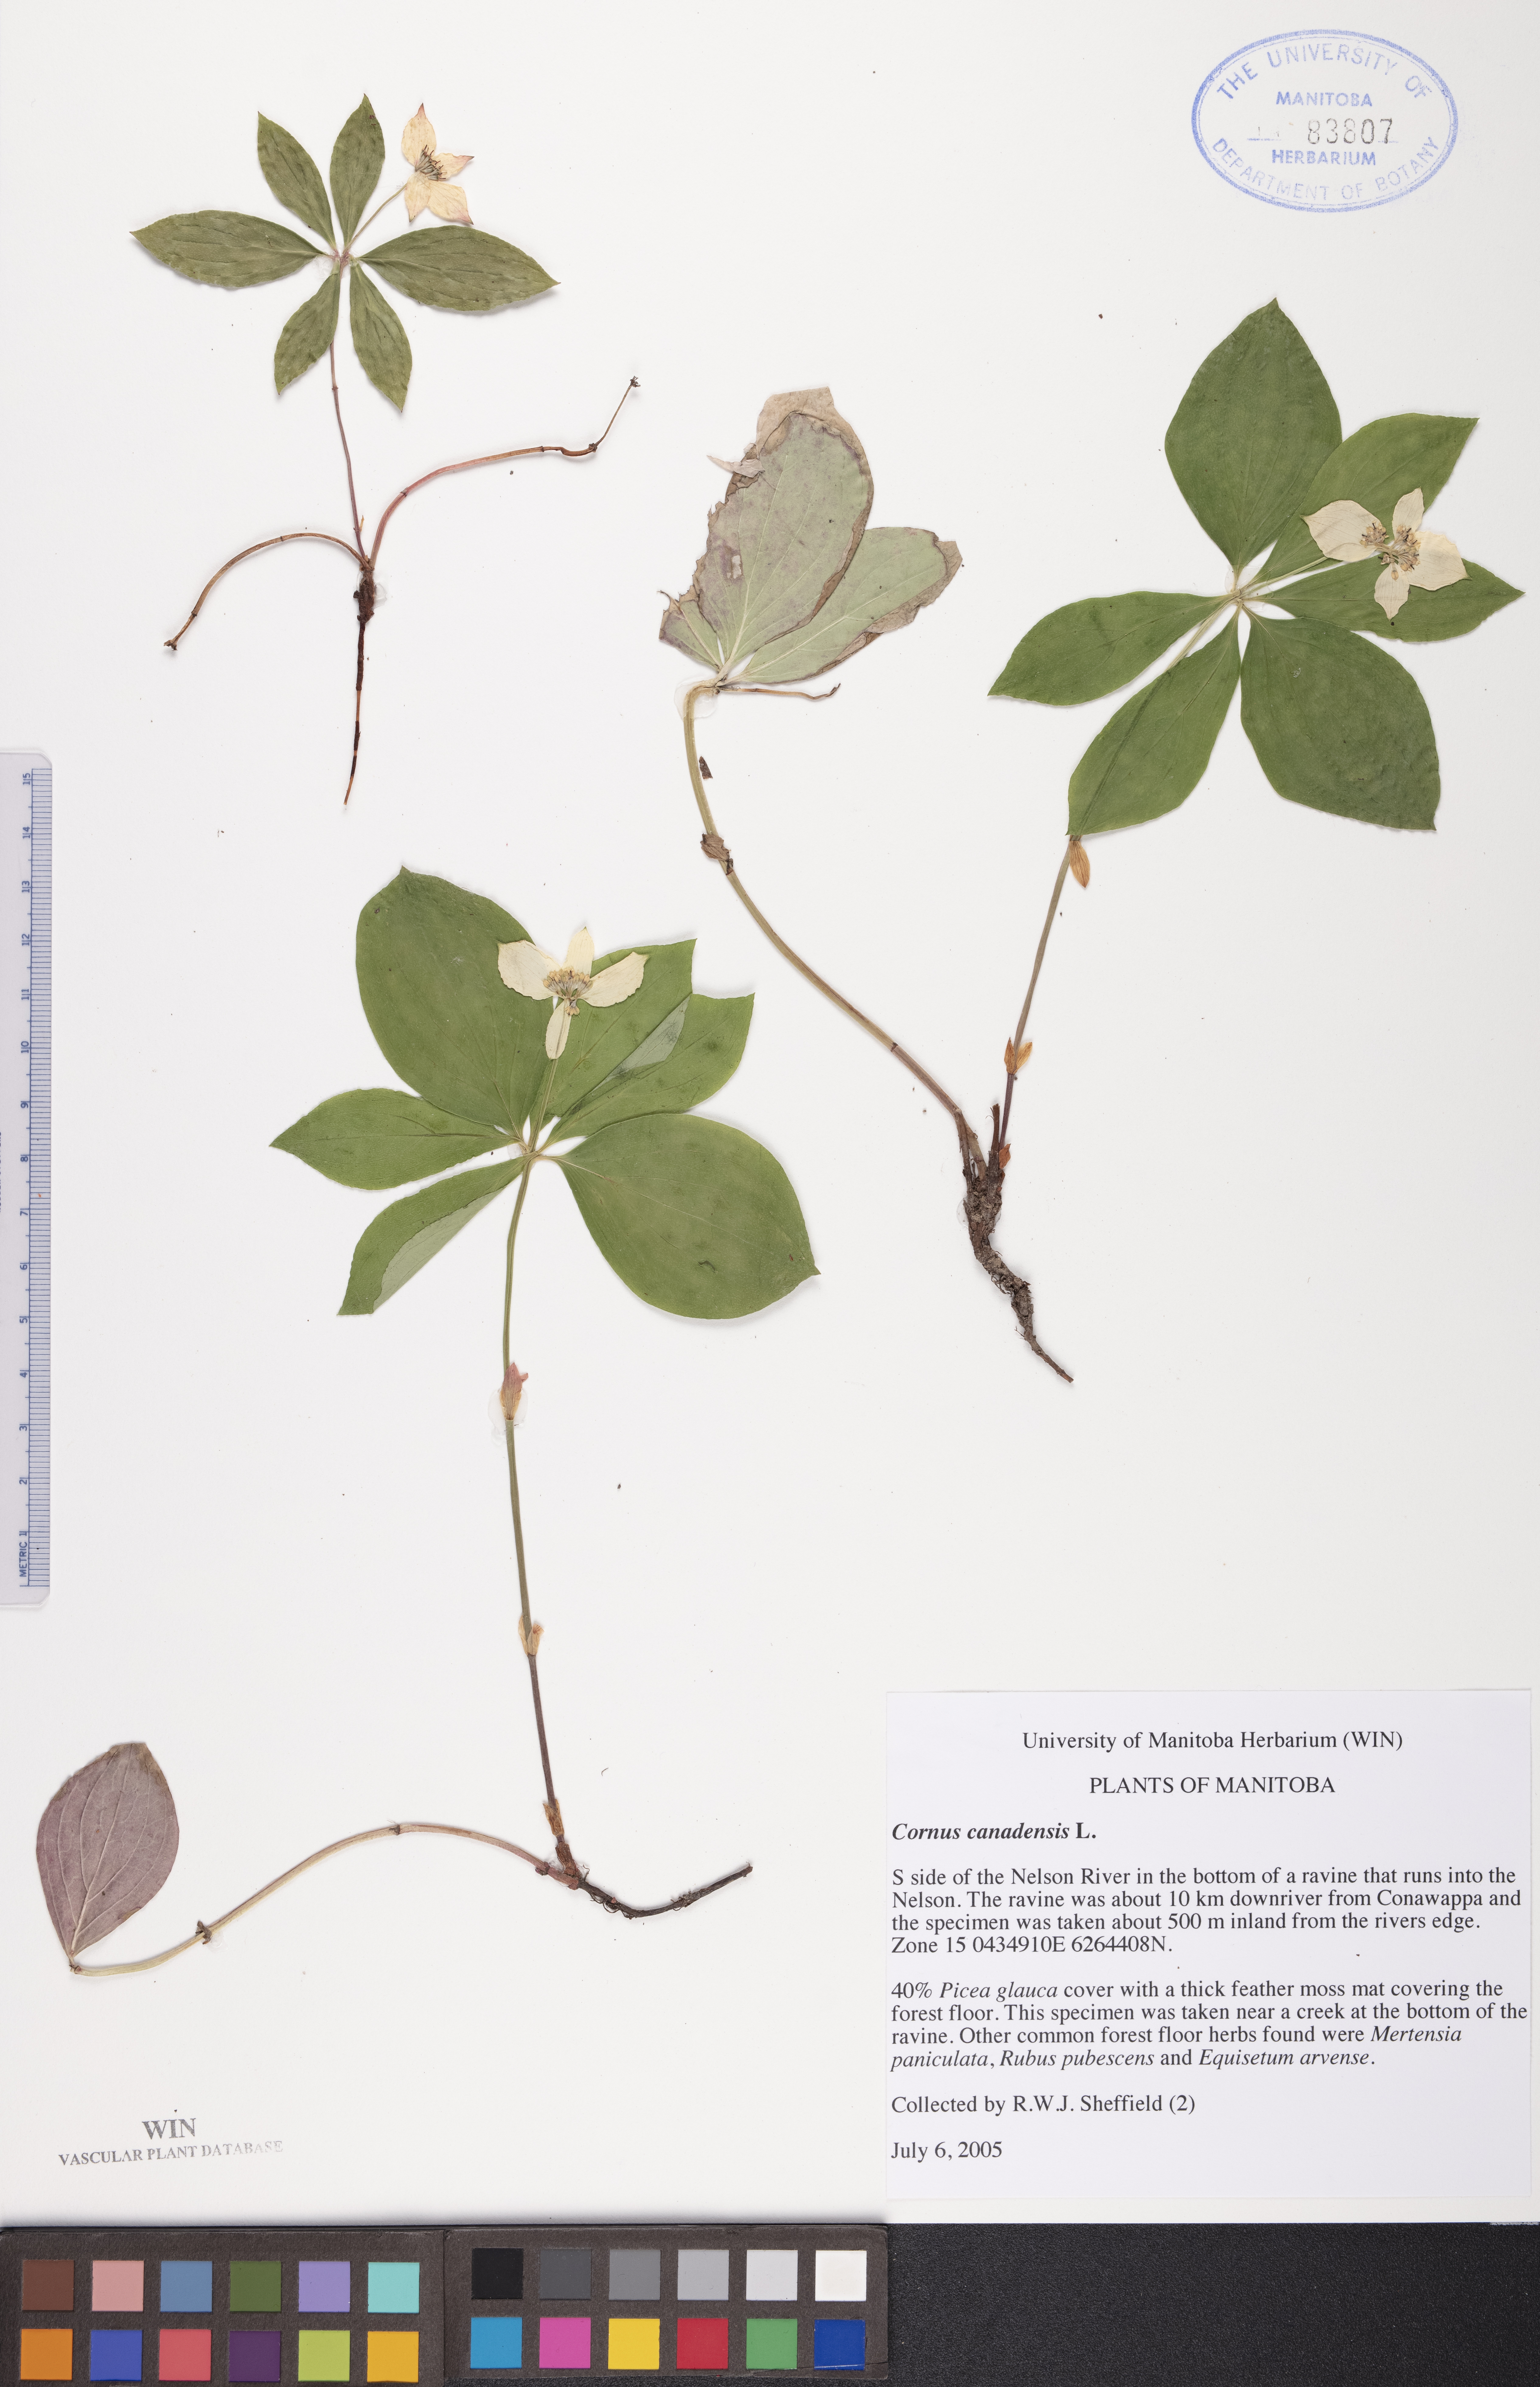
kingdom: Plantae
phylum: Tracheophyta
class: Magnoliopsida
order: Cornales
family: Cornaceae
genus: Cornus
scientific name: Cornus canadensis
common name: Creeping dogwood
